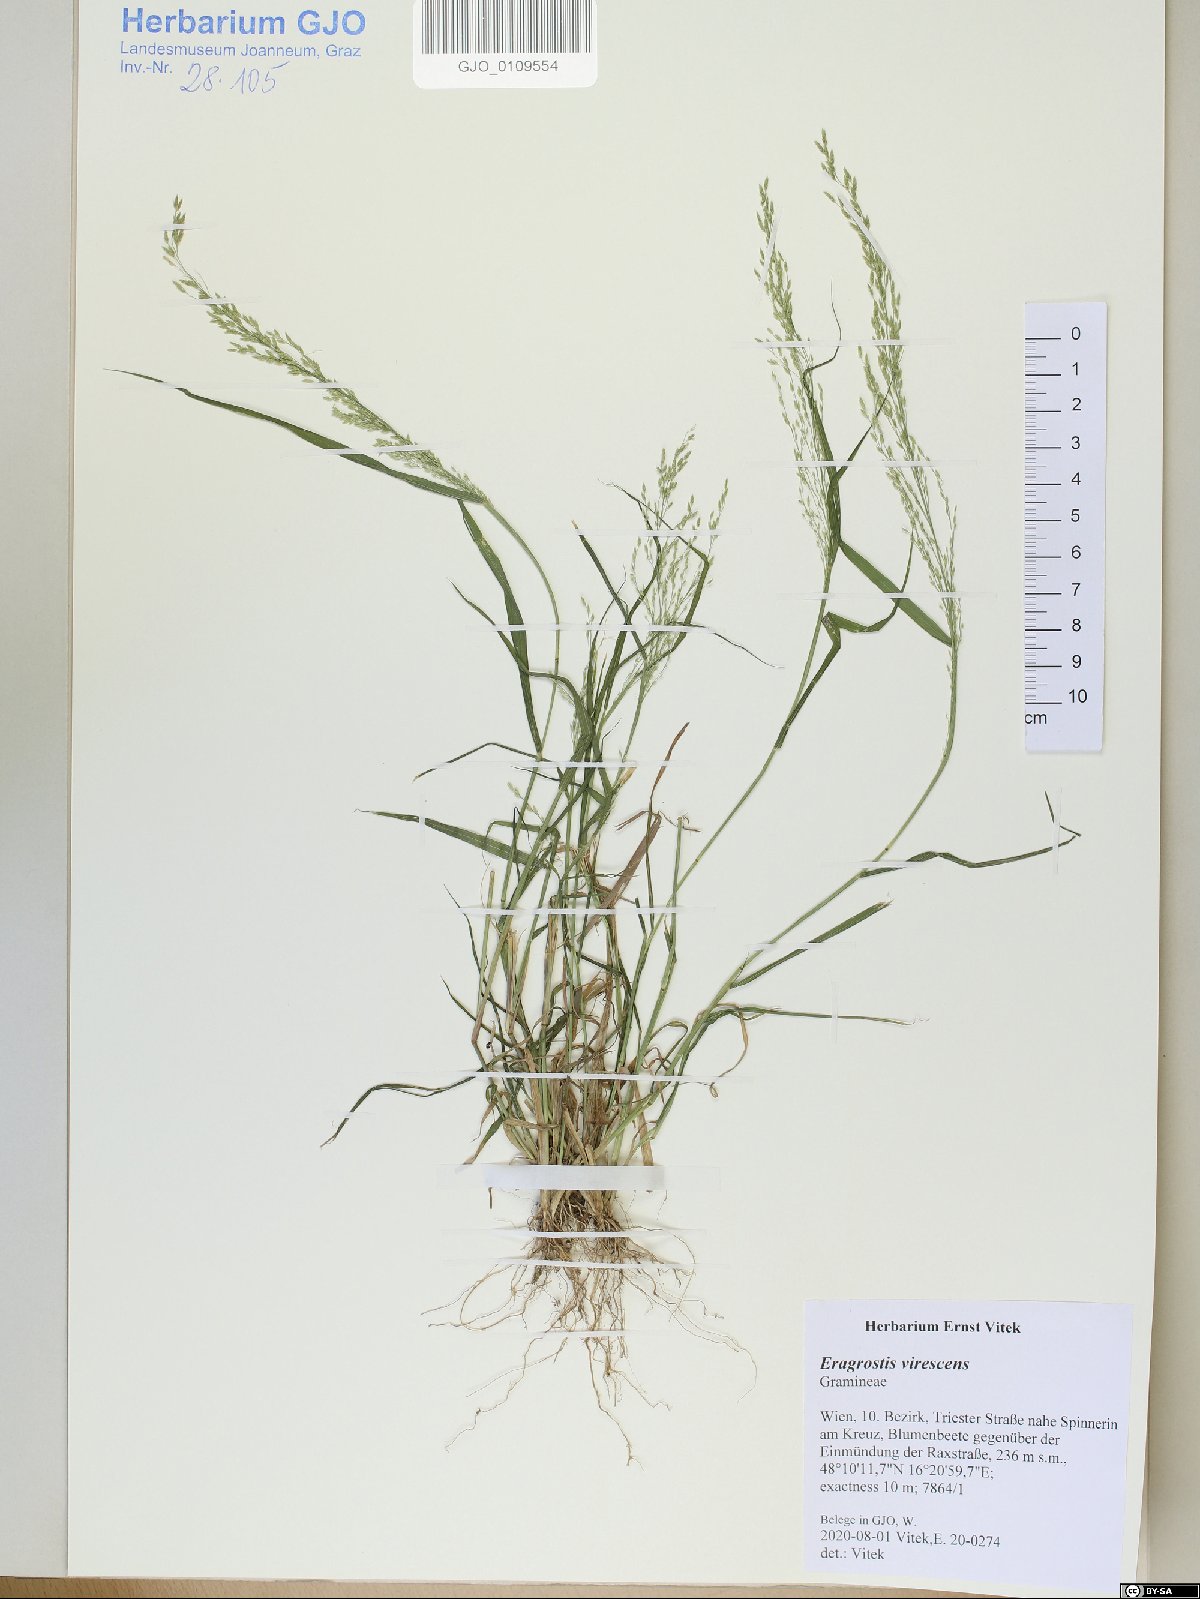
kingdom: Plantae
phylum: Tracheophyta
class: Liliopsida
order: Poales
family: Poaceae
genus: Eragrostis
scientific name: Eragrostis virescens
